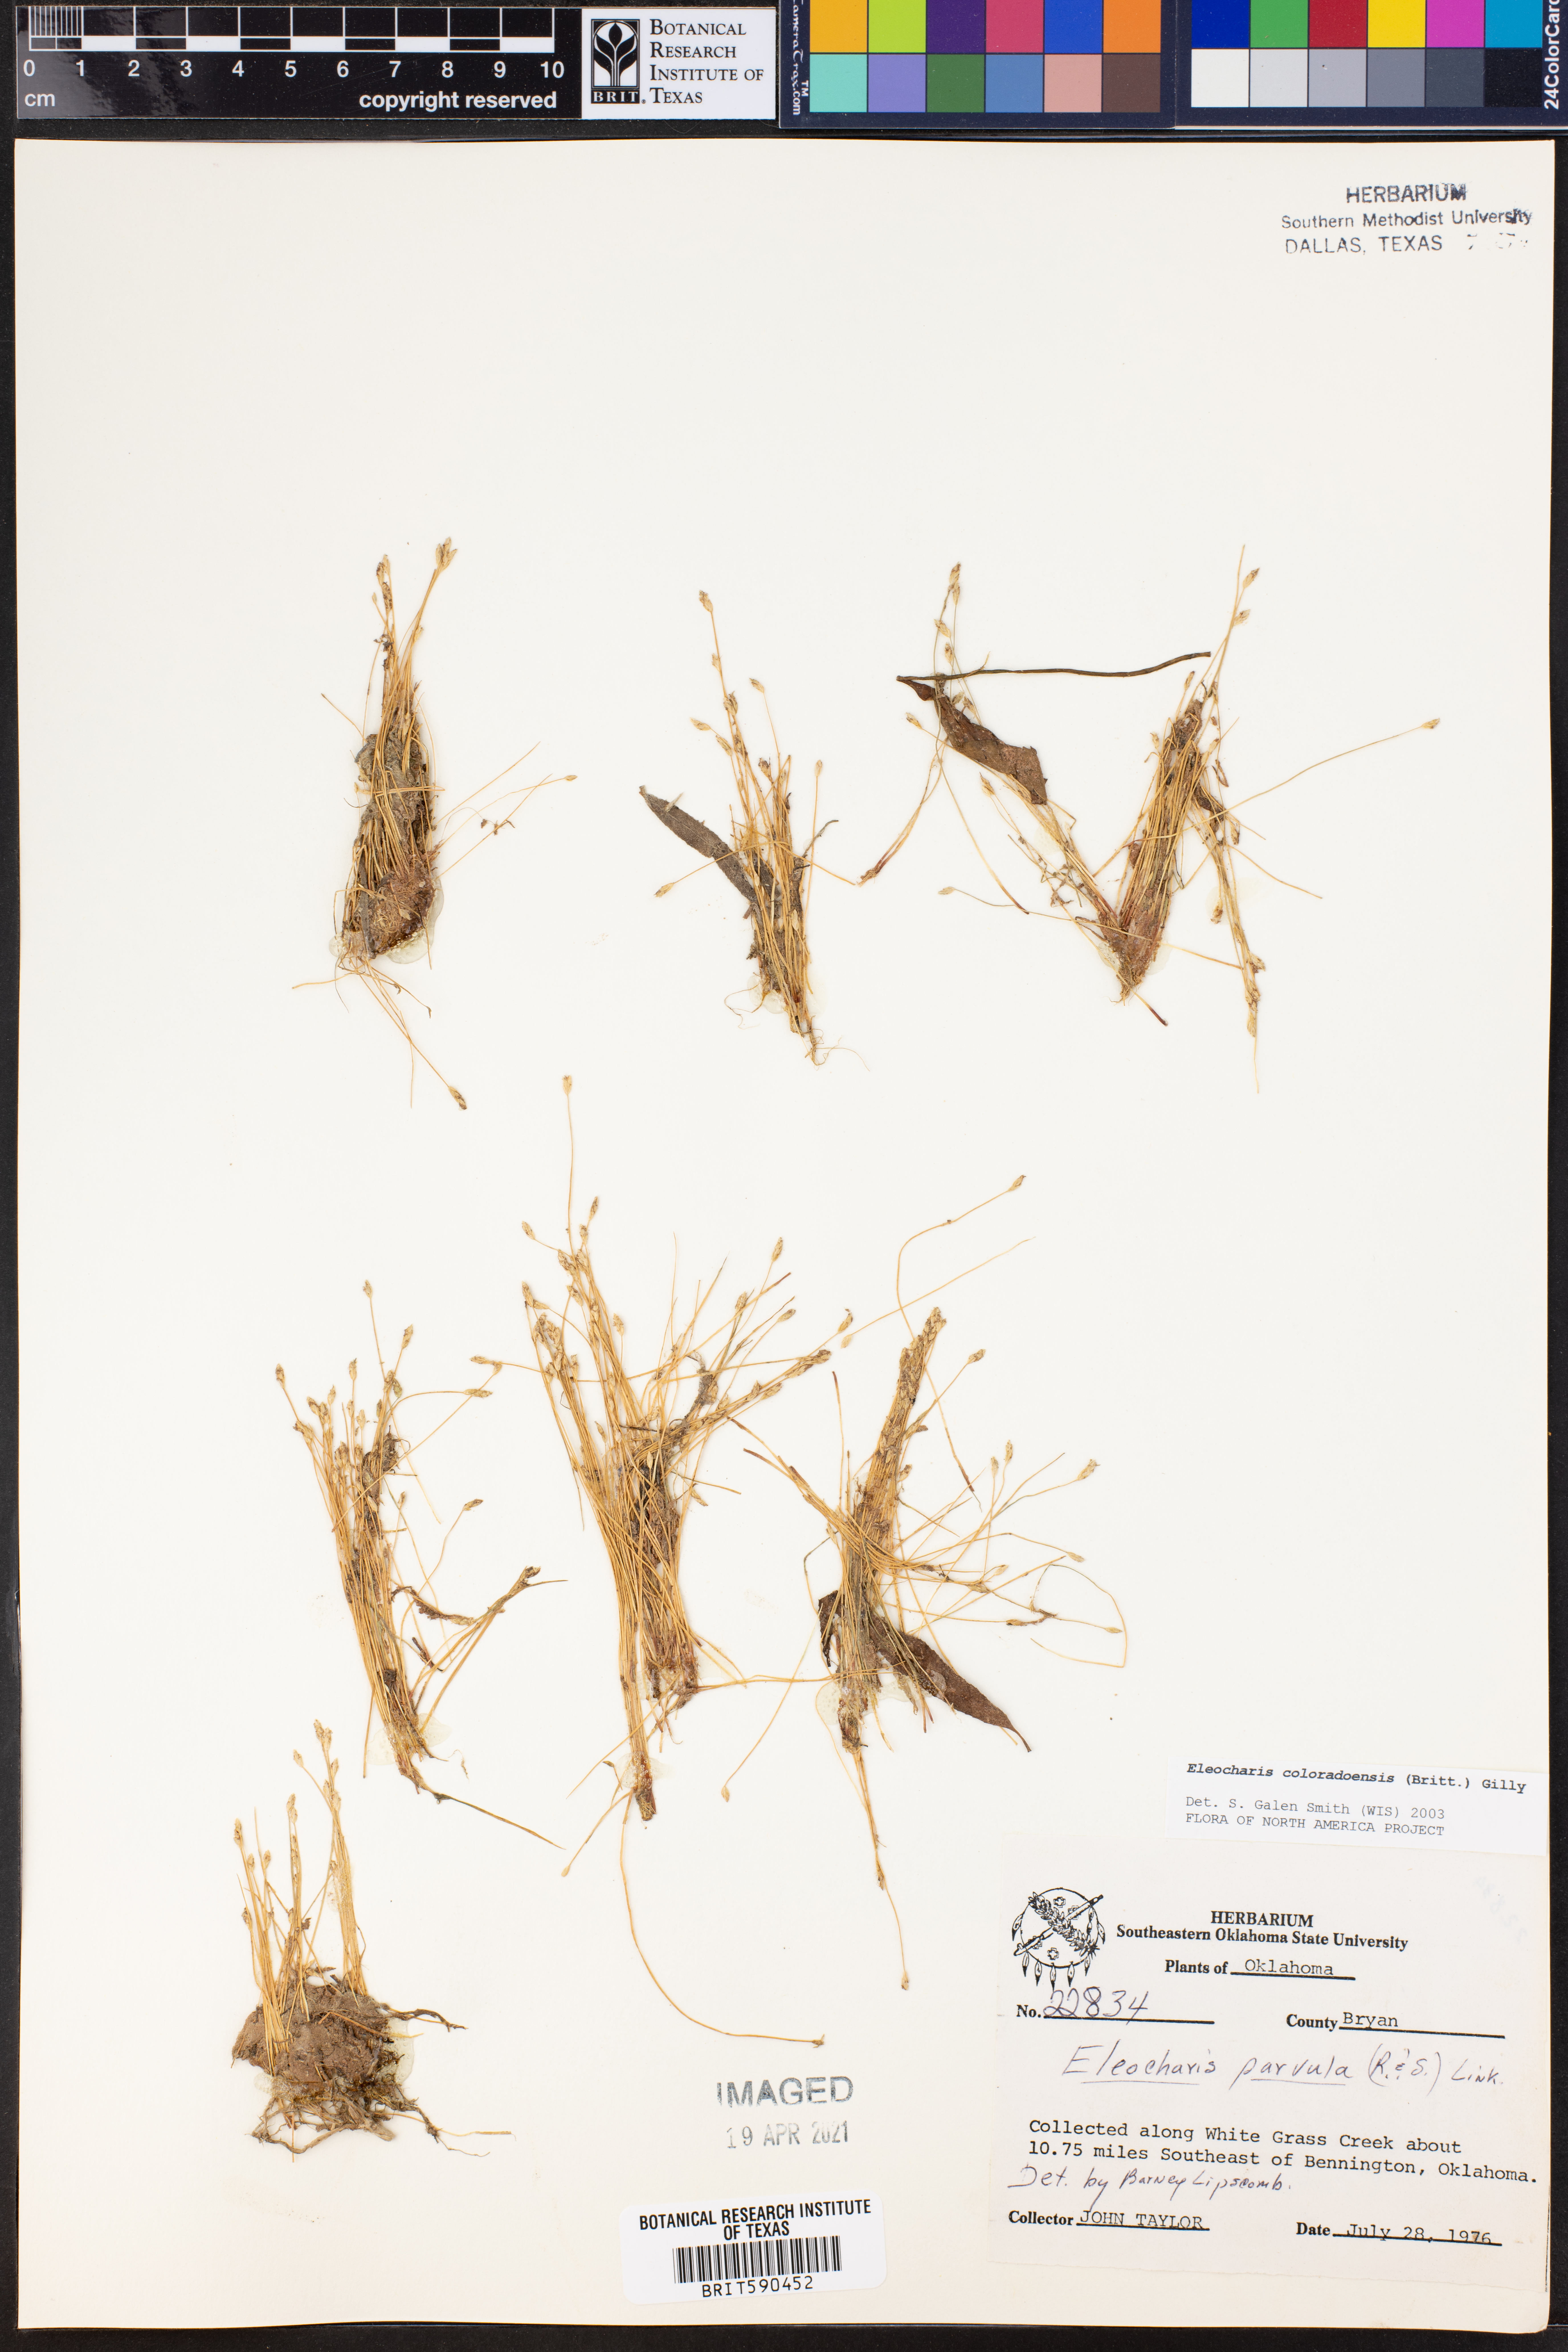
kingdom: Plantae
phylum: Tracheophyta
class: Liliopsida
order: Poales
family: Cyperaceae
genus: Eleocharis
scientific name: Eleocharis coloradoensis
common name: Colorado spikerush
